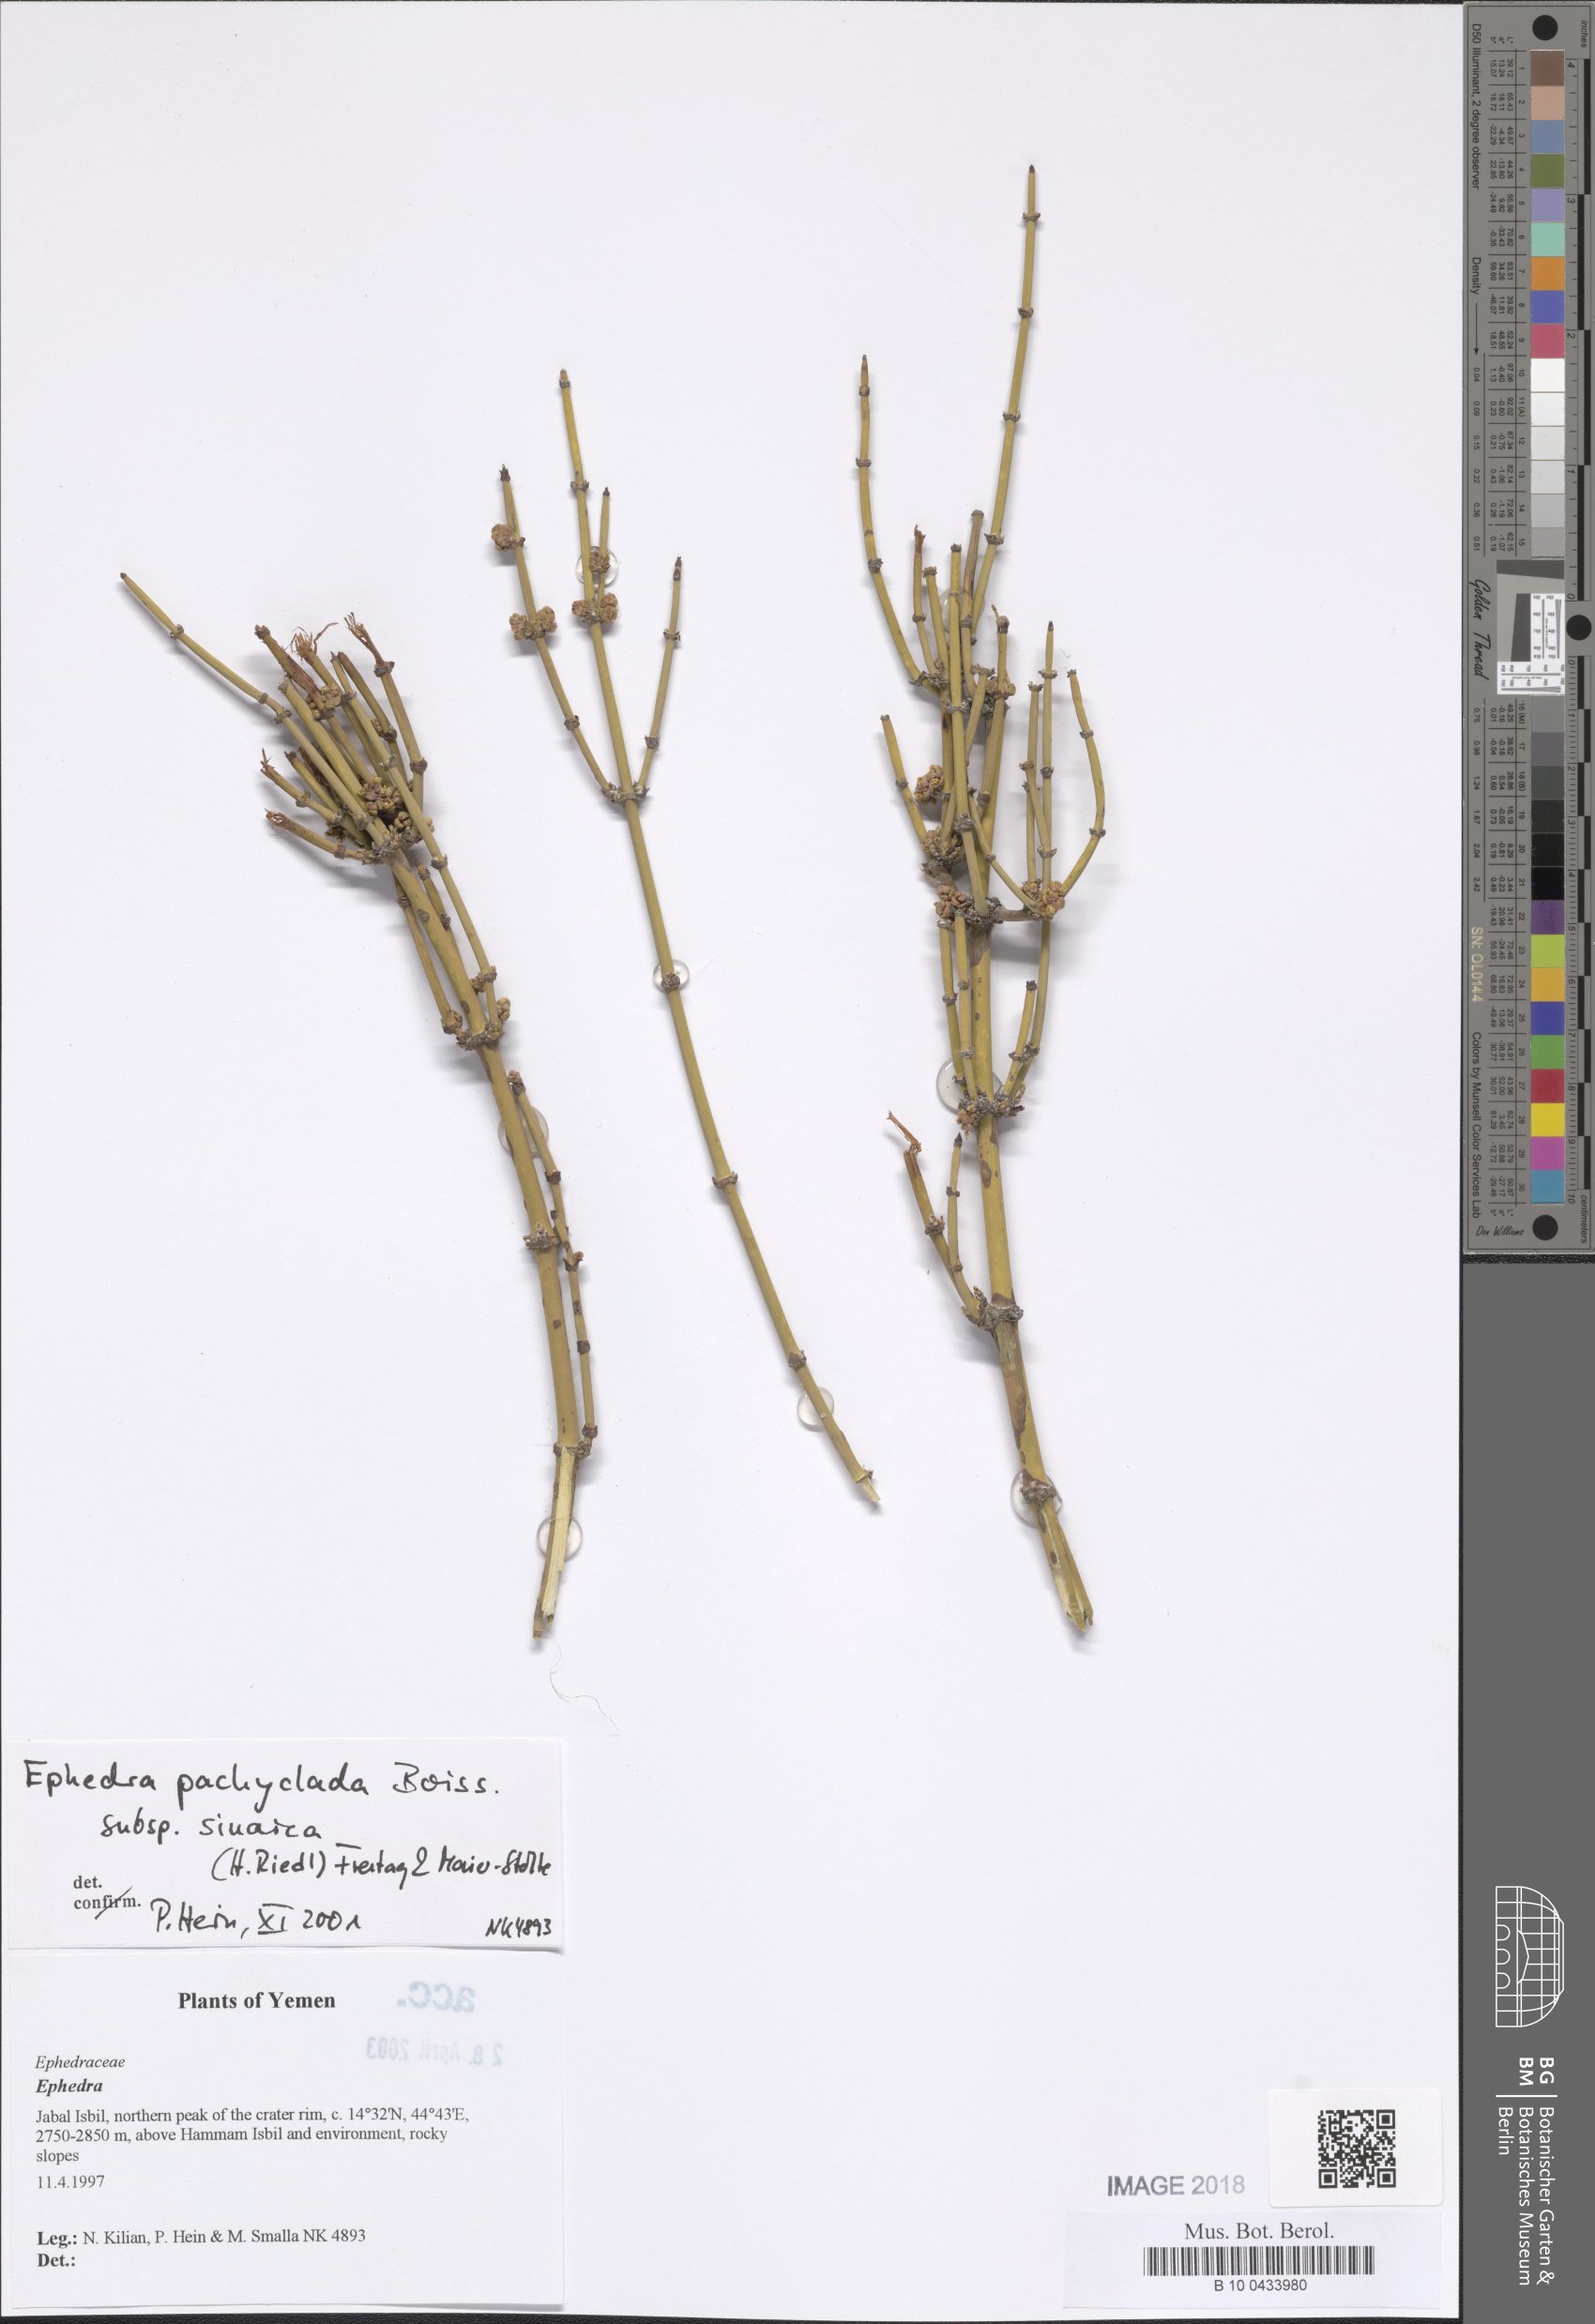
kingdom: Plantae
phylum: Tracheophyta
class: Gnetopsida
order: Ephedrales
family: Ephedraceae
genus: Ephedra
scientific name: Ephedra pachyclada
